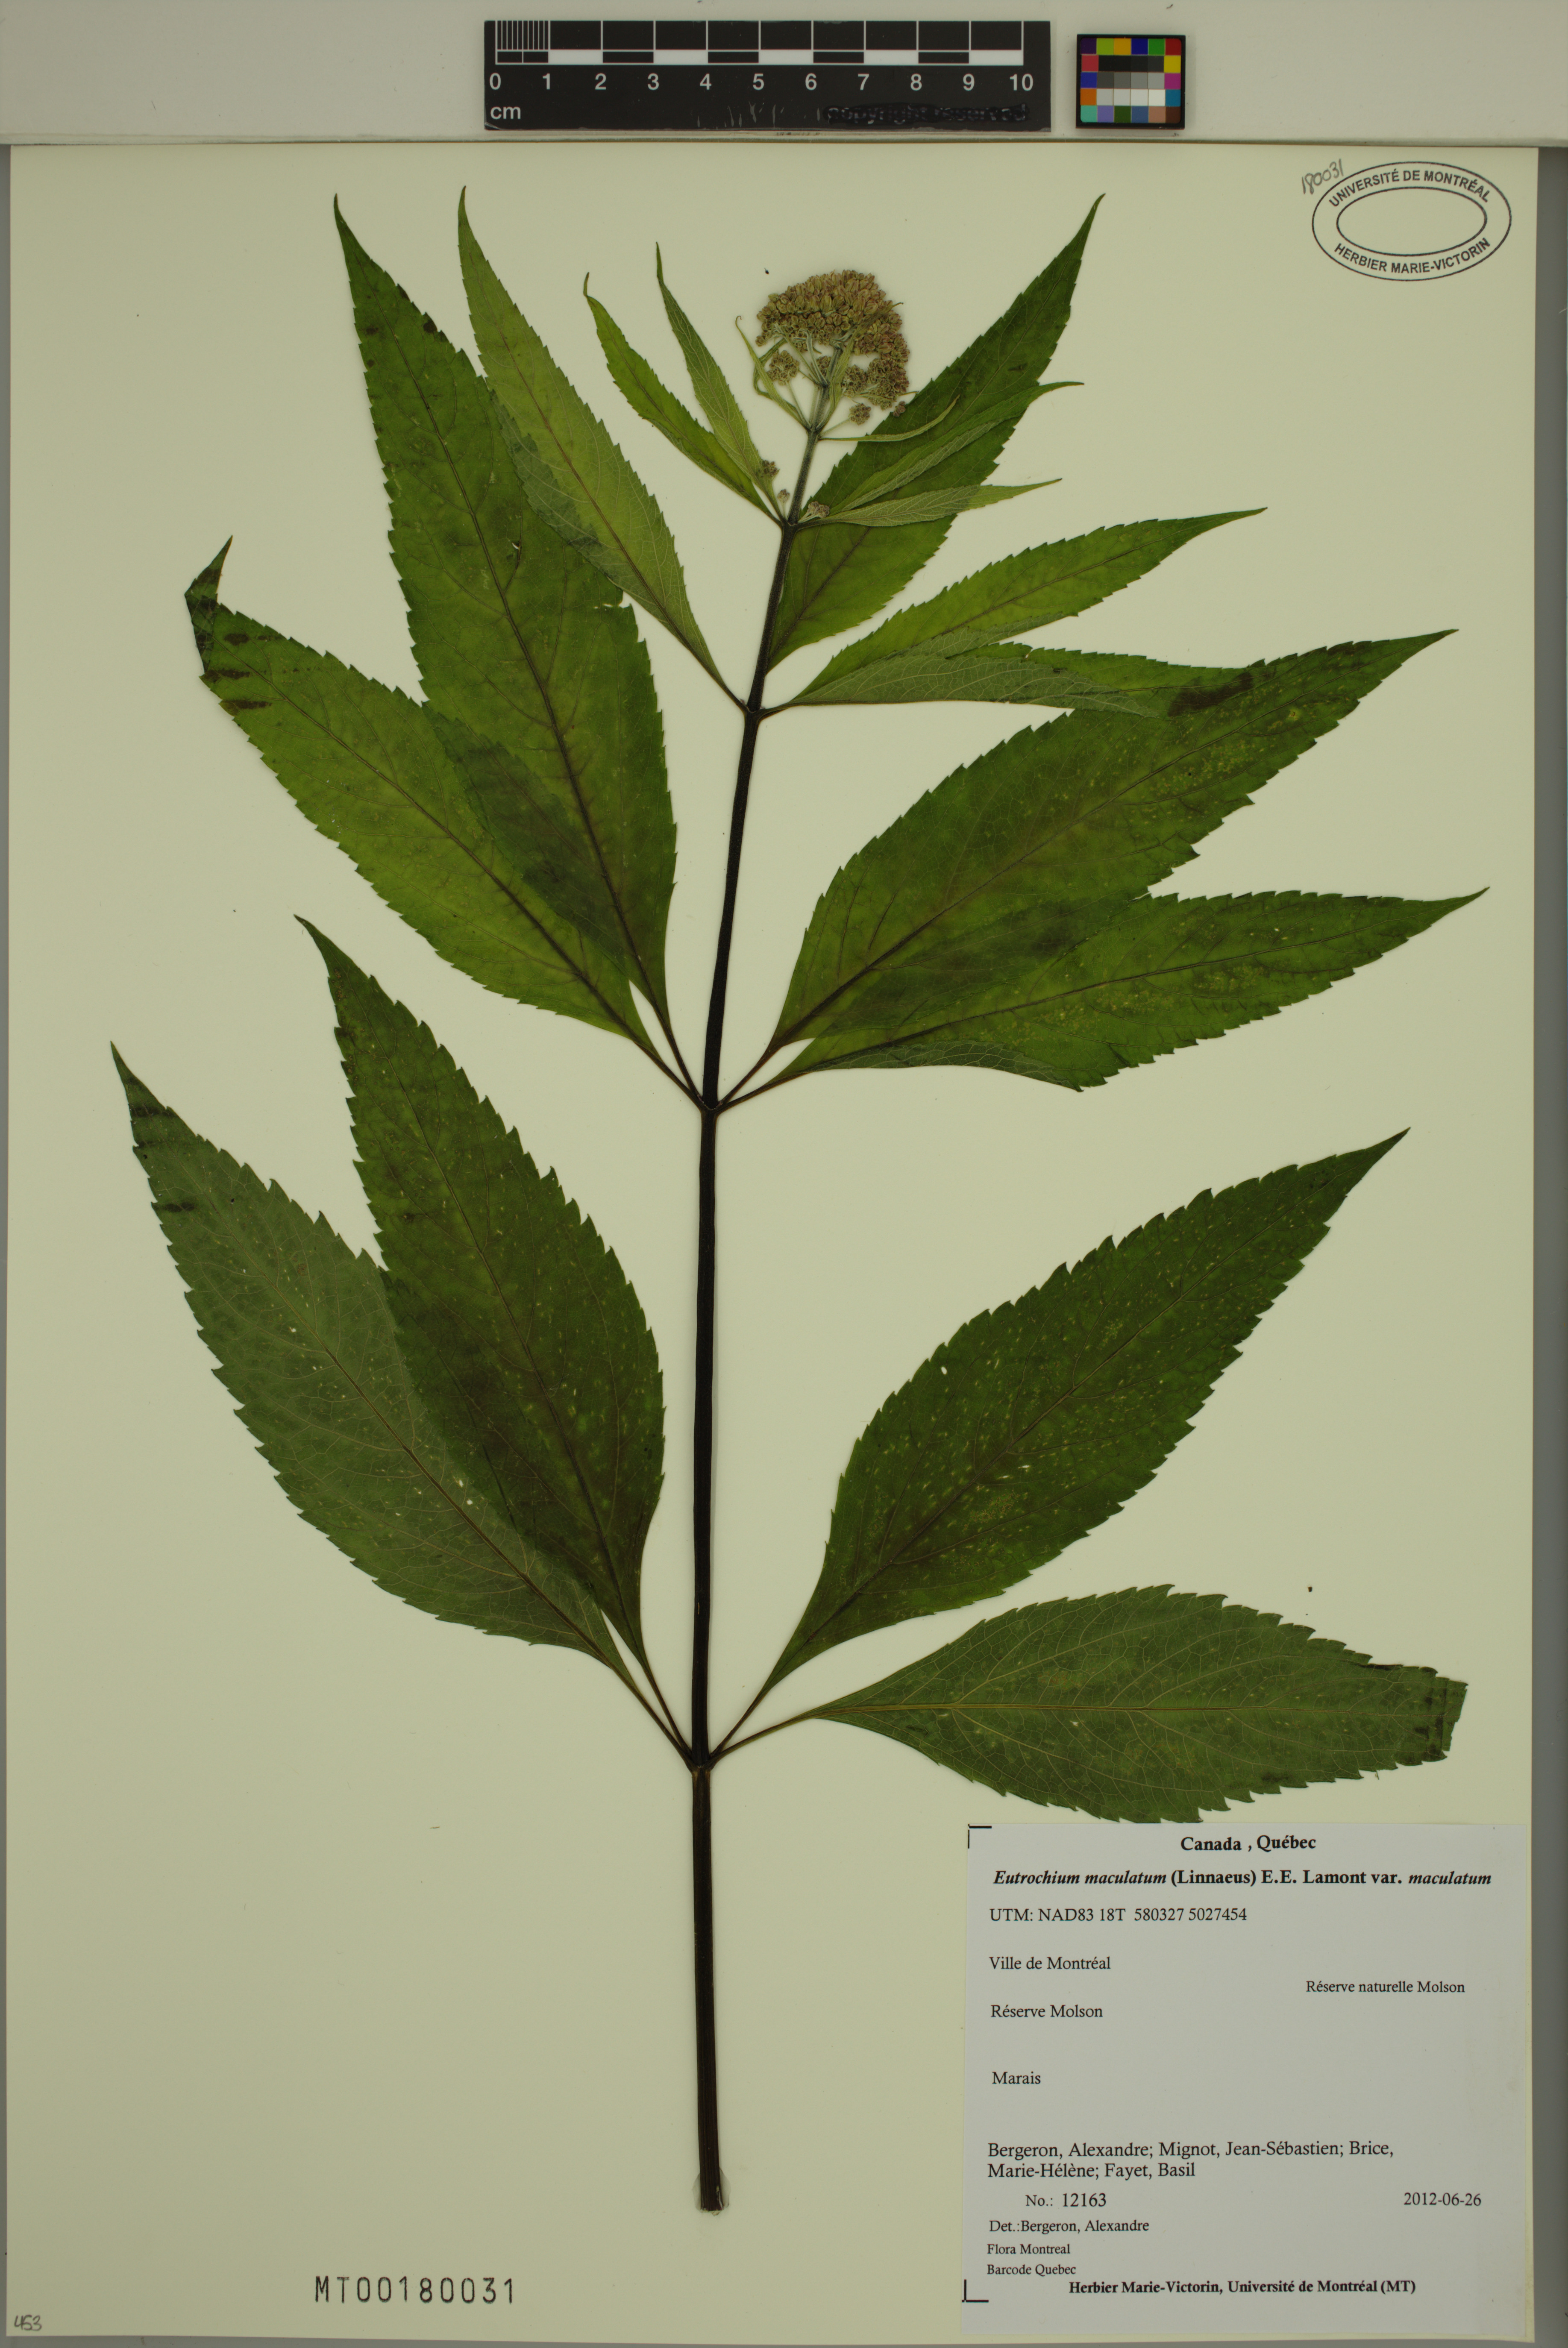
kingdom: Plantae
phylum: Tracheophyta
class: Magnoliopsida
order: Asterales
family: Asteraceae
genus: Eutrochium
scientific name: Eutrochium maculatum
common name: Spotted joe pye weed
